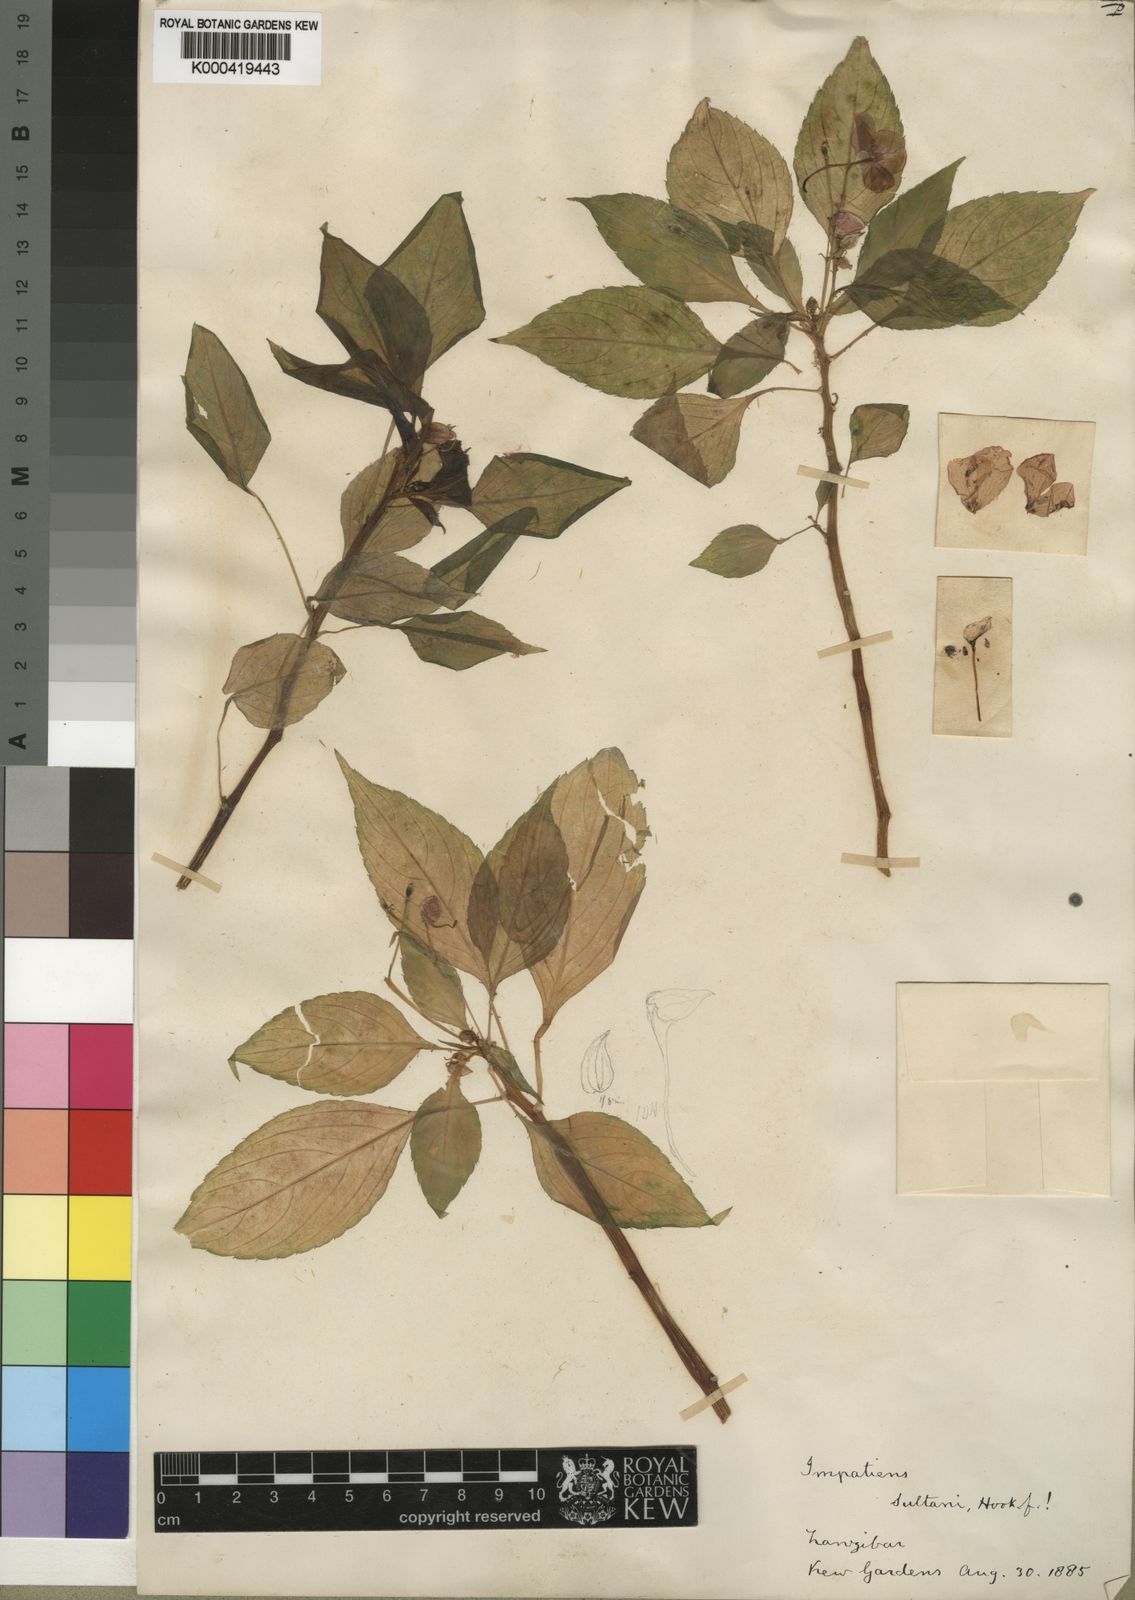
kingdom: Plantae
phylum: Tracheophyta
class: Magnoliopsida
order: Ericales
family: Balsaminaceae
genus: Impatiens
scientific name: Impatiens walleriana
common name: Buzzy lizzy
